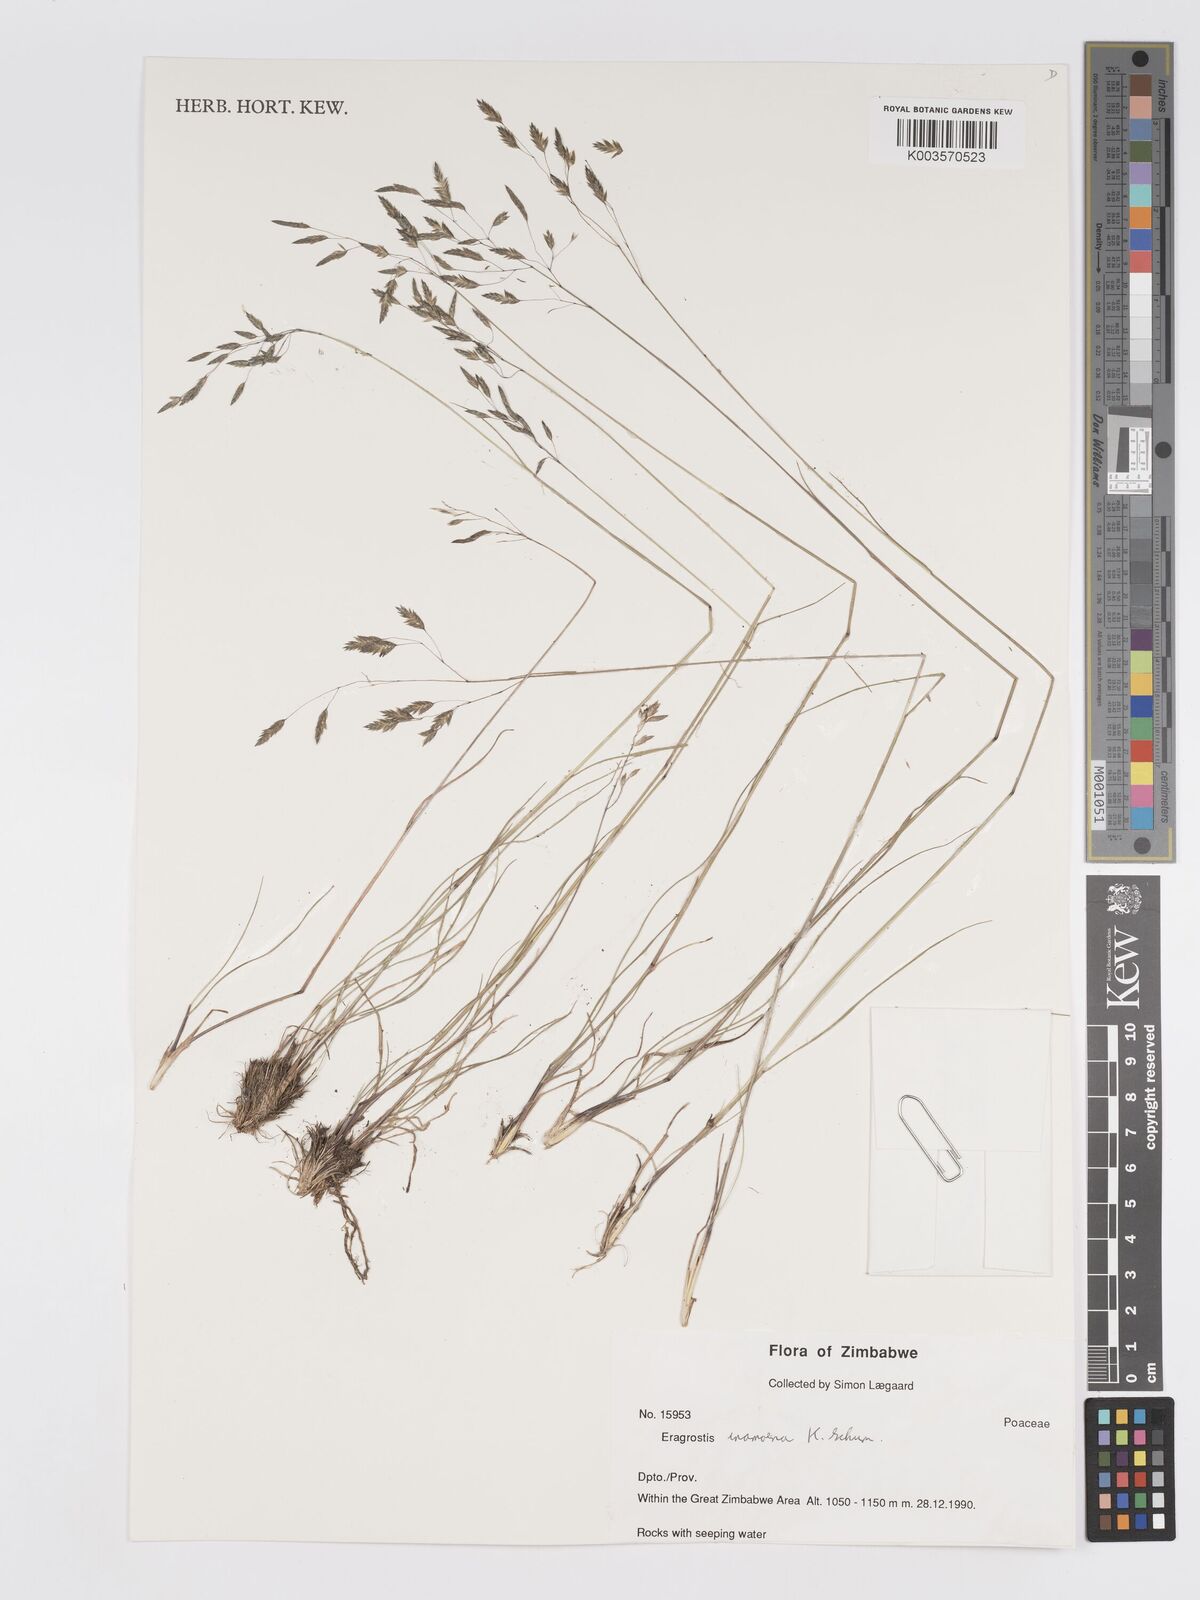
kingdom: Plantae
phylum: Tracheophyta
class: Liliopsida
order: Poales
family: Poaceae
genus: Eragrostis
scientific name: Eragrostis inamoena
